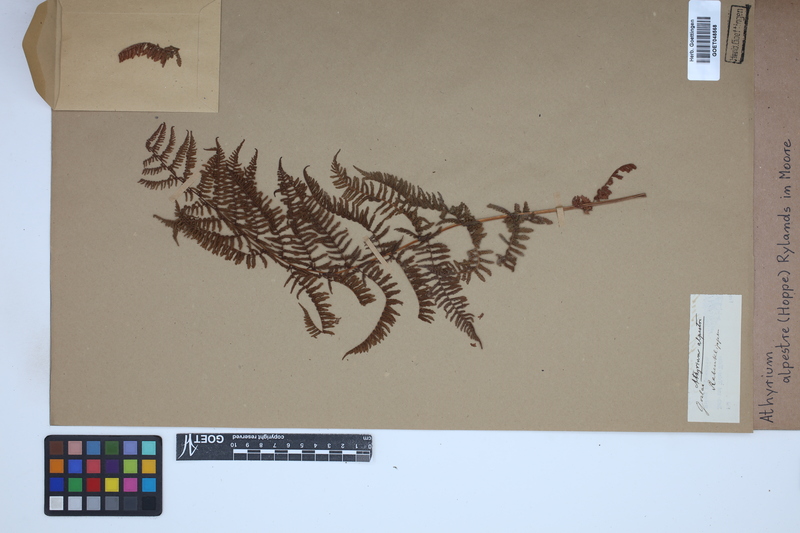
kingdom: Plantae
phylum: Tracheophyta
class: Polypodiopsida
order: Polypodiales
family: Athyriaceae
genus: Pseudathyrium
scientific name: Pseudathyrium alpestre
